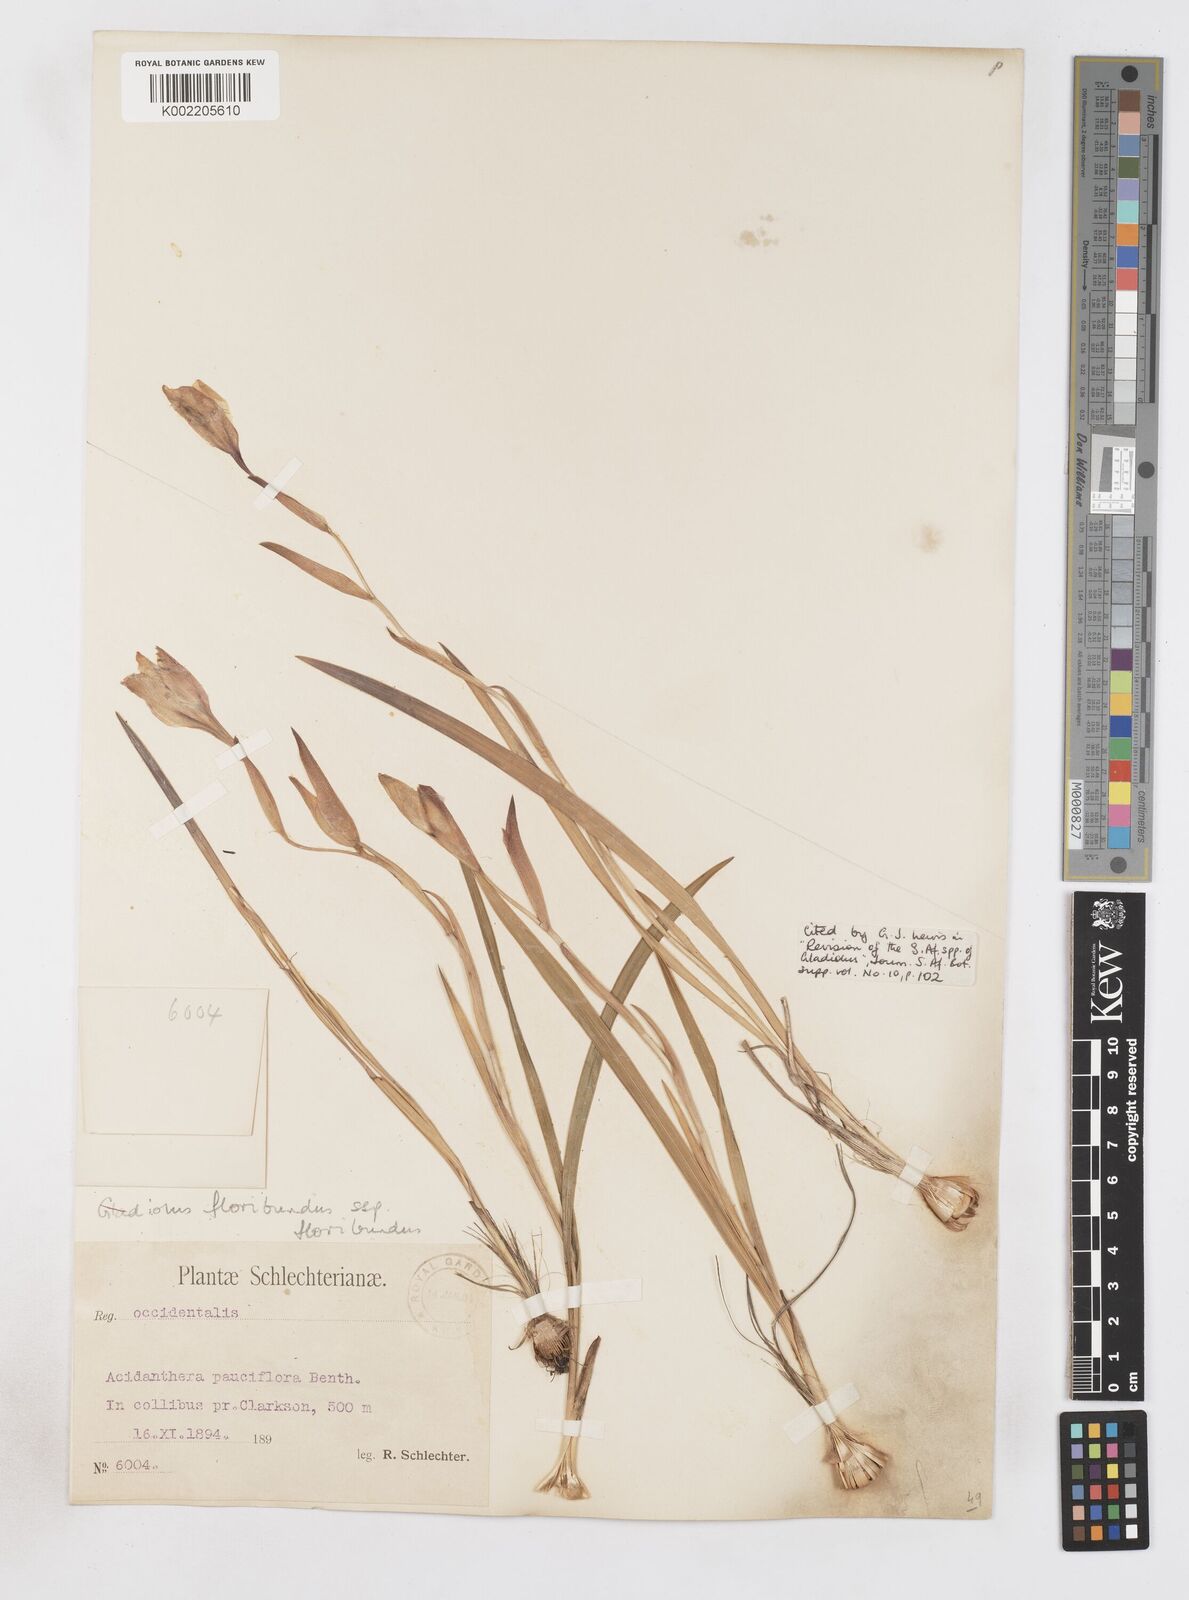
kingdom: Plantae
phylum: Tracheophyta
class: Liliopsida
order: Asparagales
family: Iridaceae
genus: Gladiolus
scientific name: Gladiolus floribundus
